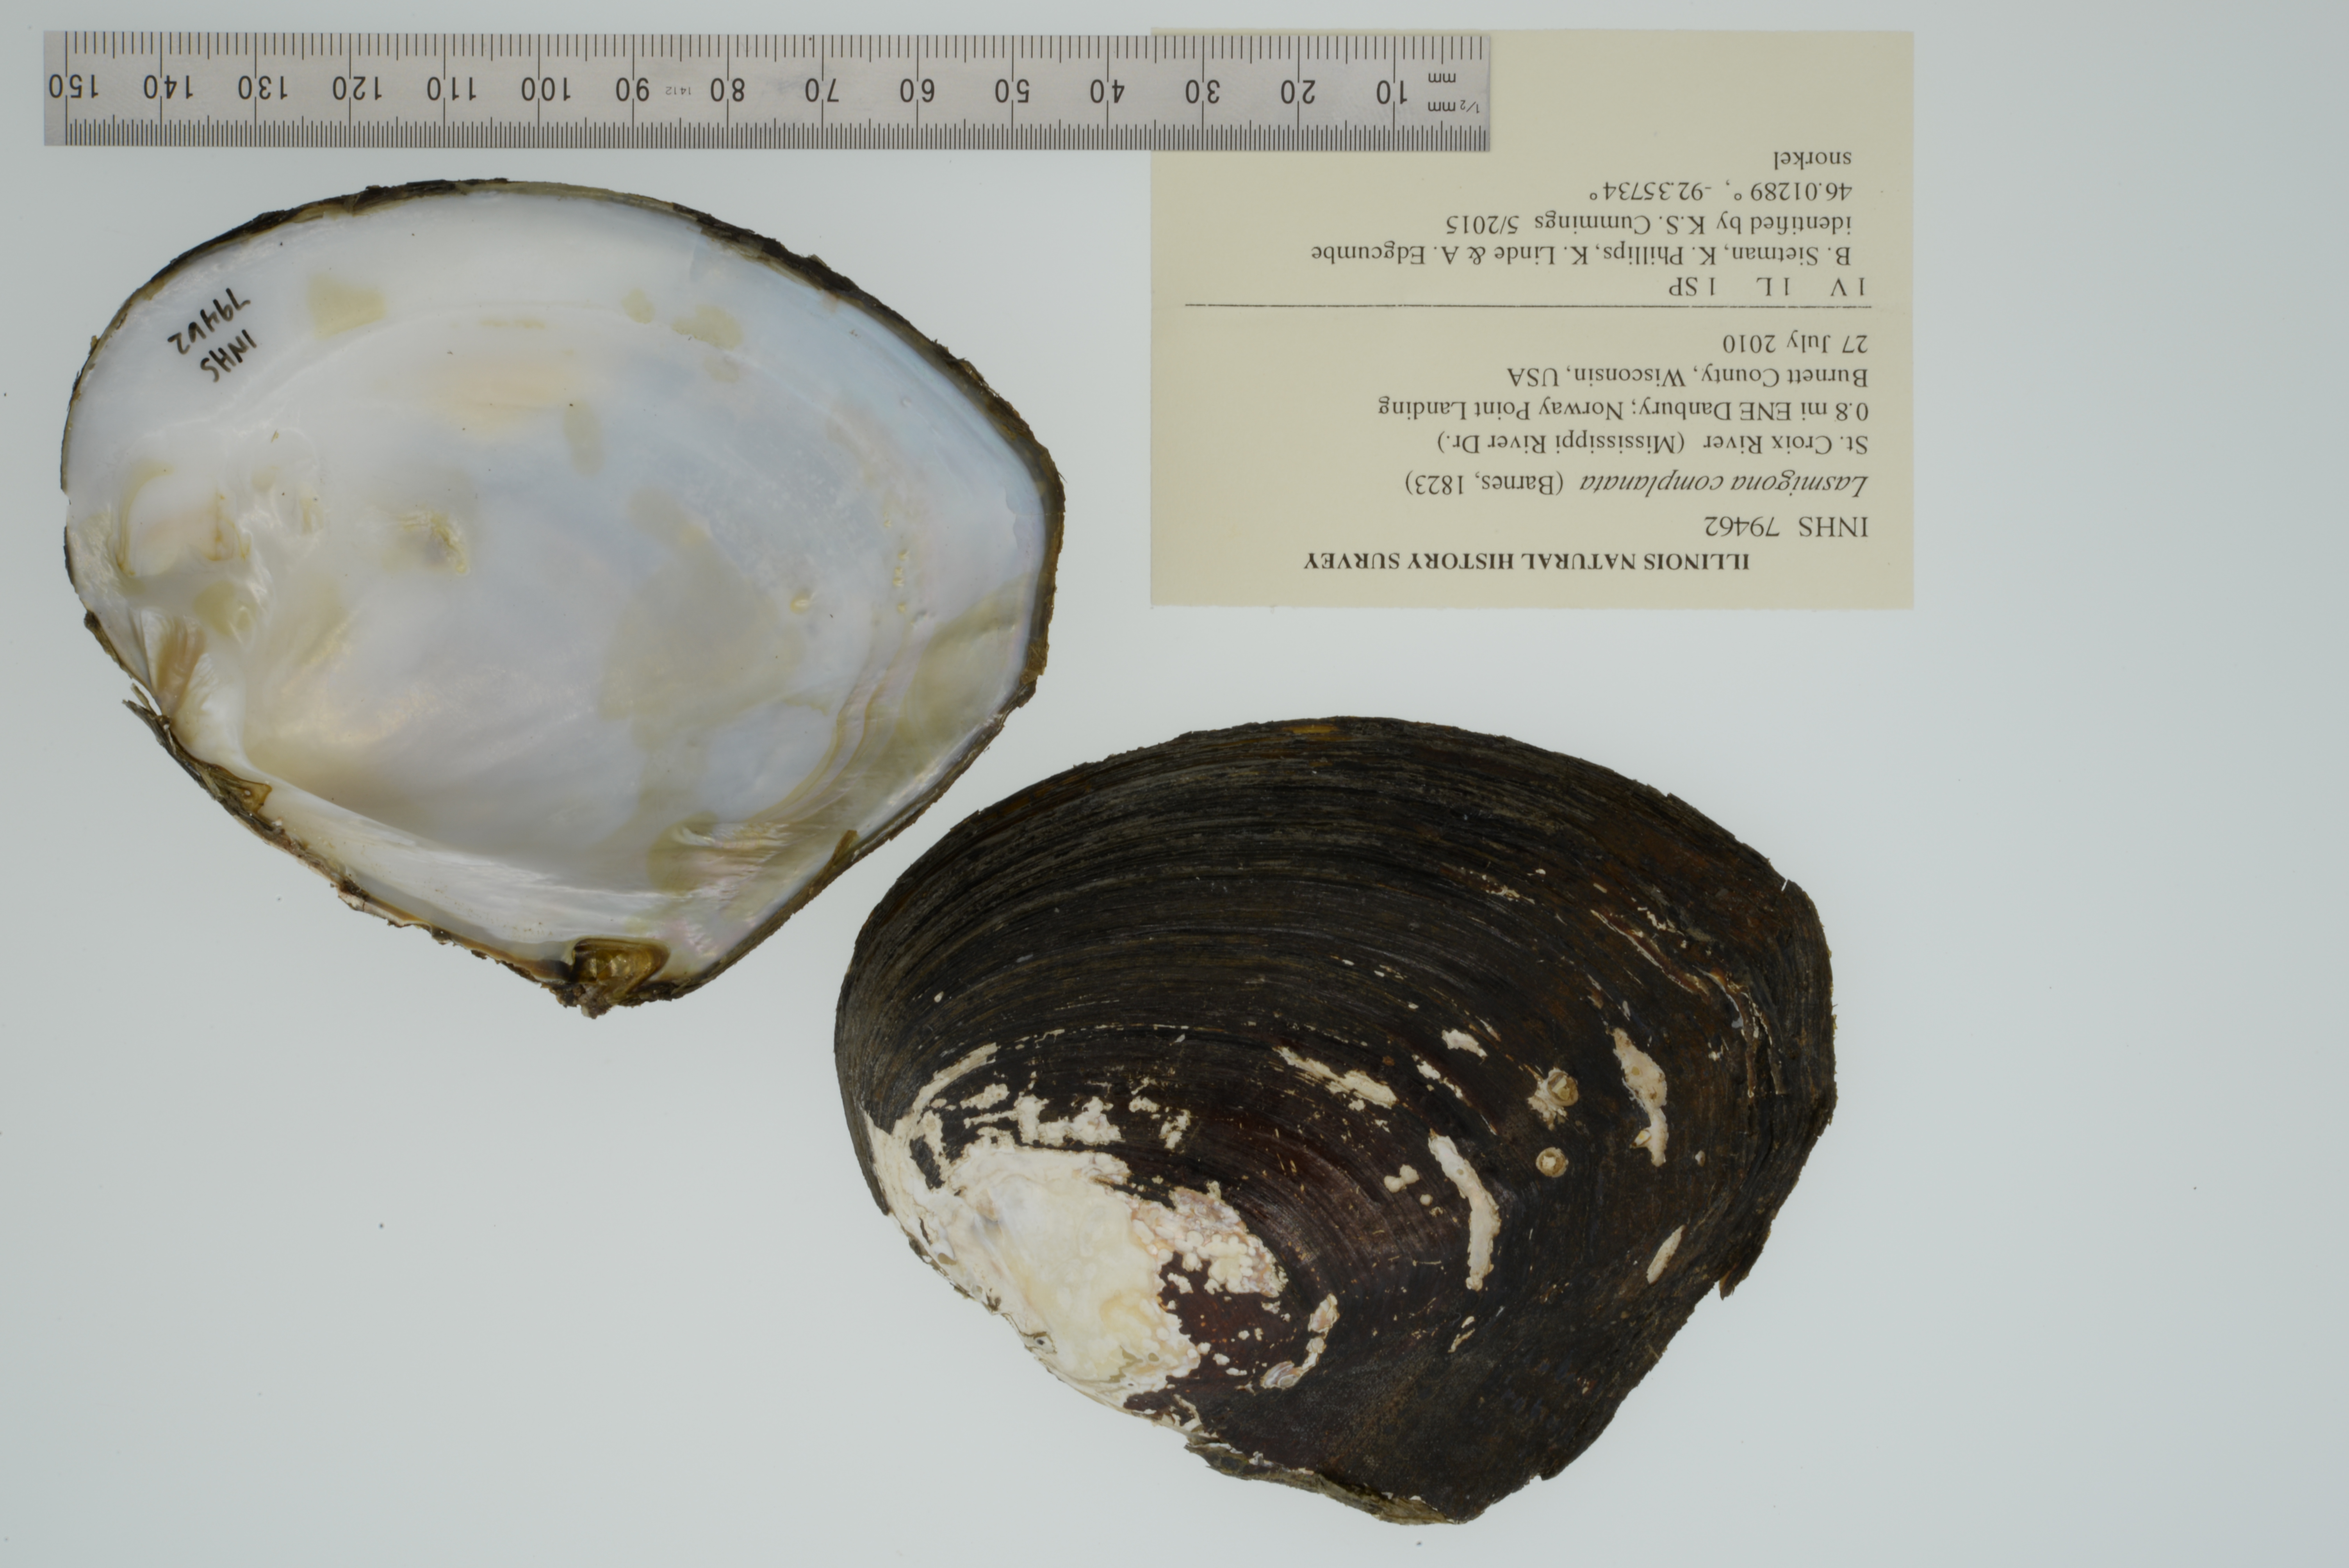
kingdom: Animalia
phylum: Mollusca
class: Bivalvia
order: Unionida
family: Unionidae
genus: Lasmigona
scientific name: Lasmigona complanata
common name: White heelsplitter
